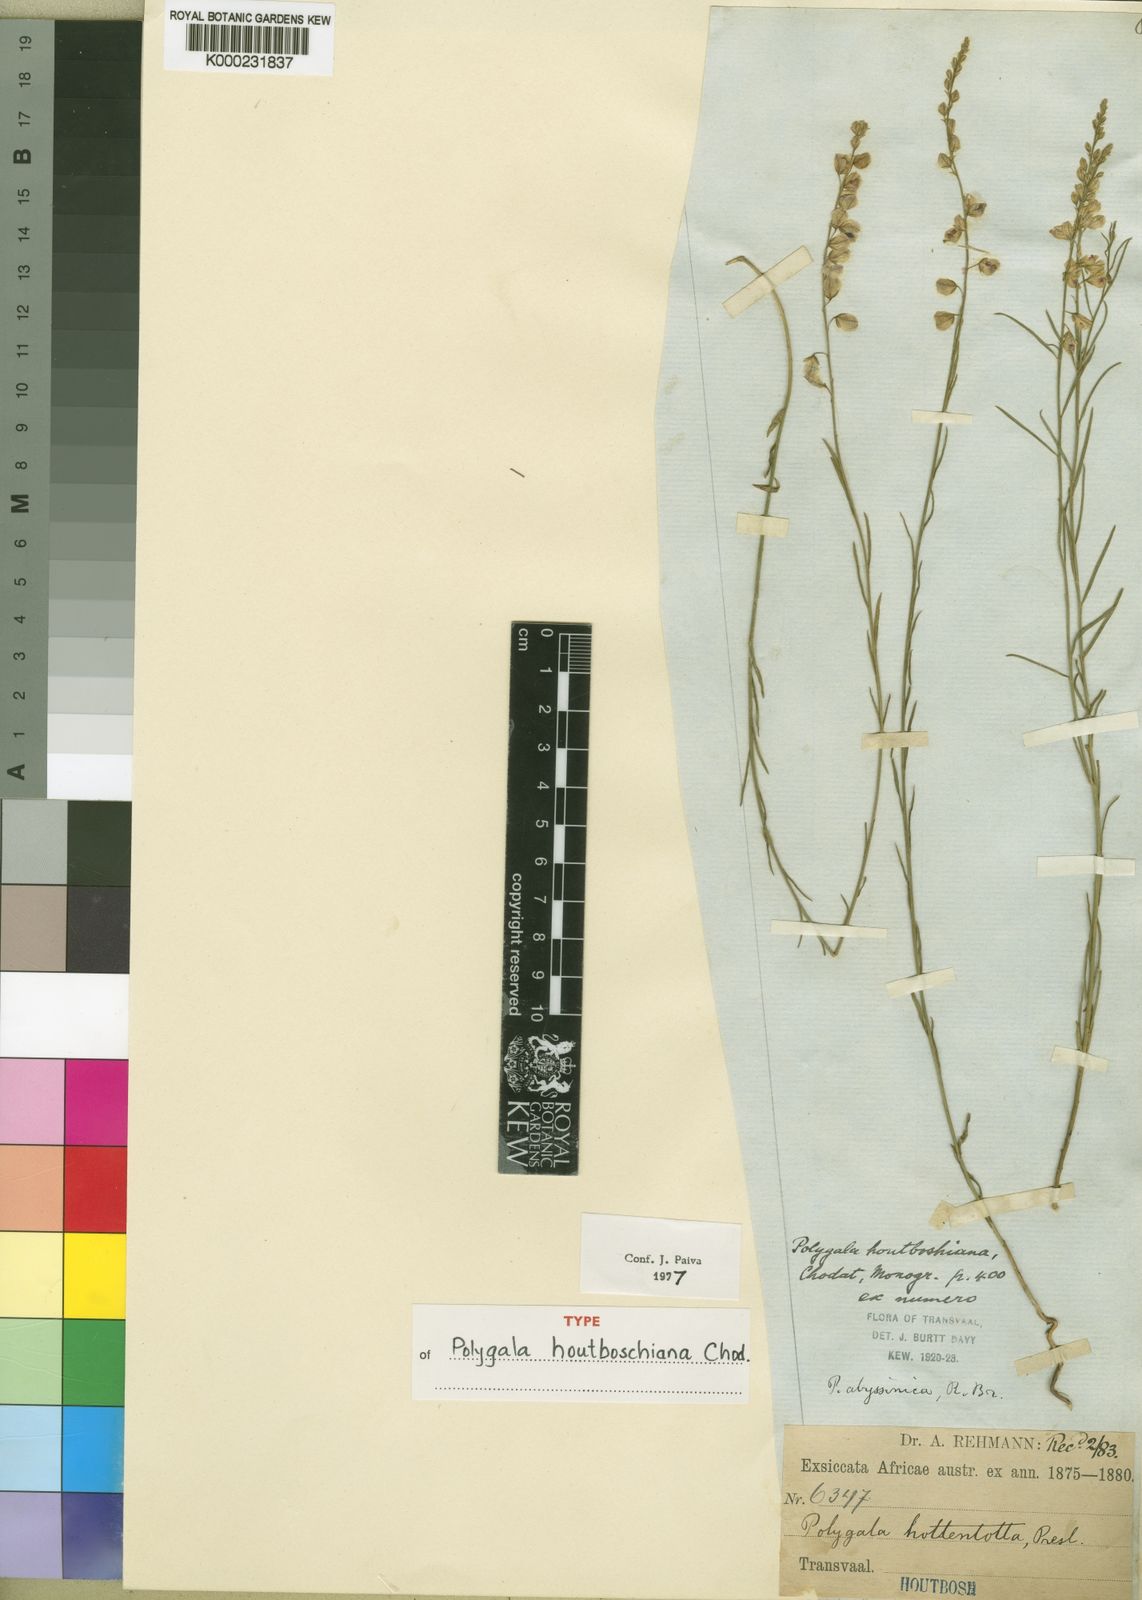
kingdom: Plantae
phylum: Tracheophyta
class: Magnoliopsida
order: Fabales
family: Polygalaceae
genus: Polygala
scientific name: Polygala houtboshiana
